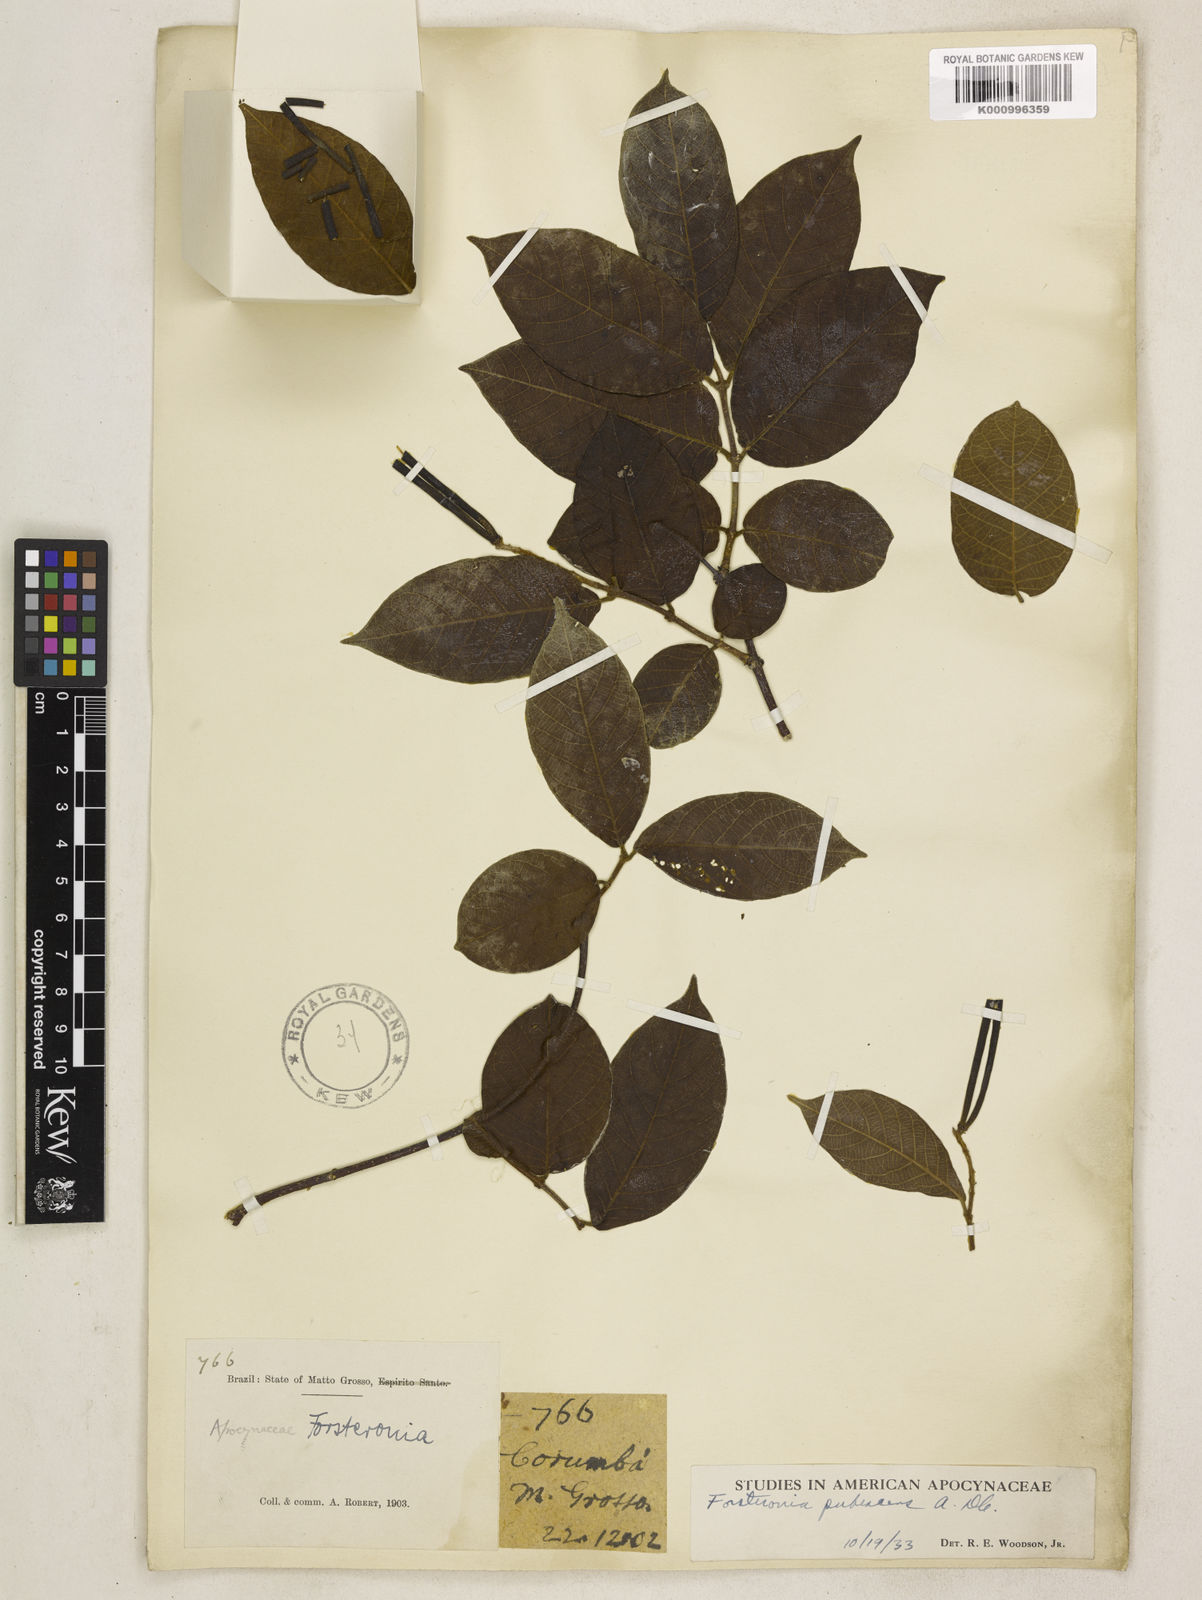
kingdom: Plantae
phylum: Tracheophyta
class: Magnoliopsida
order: Gentianales
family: Apocynaceae
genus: Forsteronia
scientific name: Forsteronia
